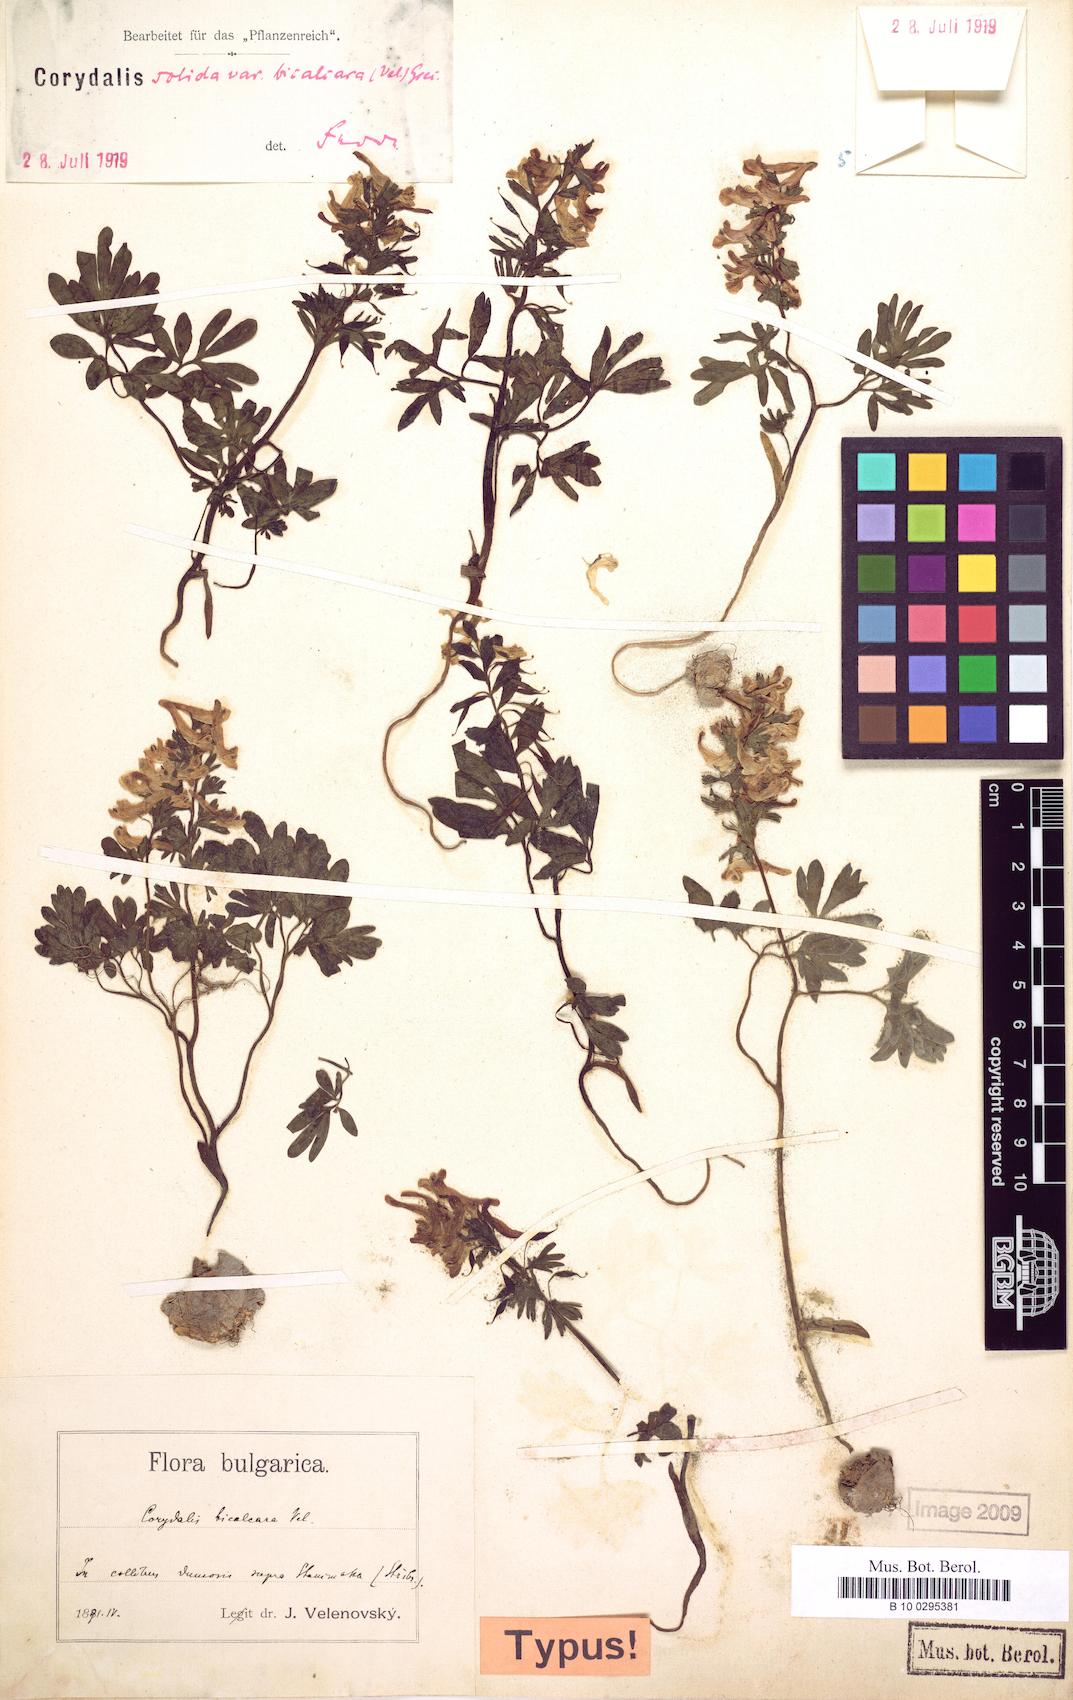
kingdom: Plantae
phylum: Tracheophyta
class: Magnoliopsida
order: Ranunculales
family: Papaveraceae
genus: Corydalis
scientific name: Corydalis solida
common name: Bird-in-a-bush
